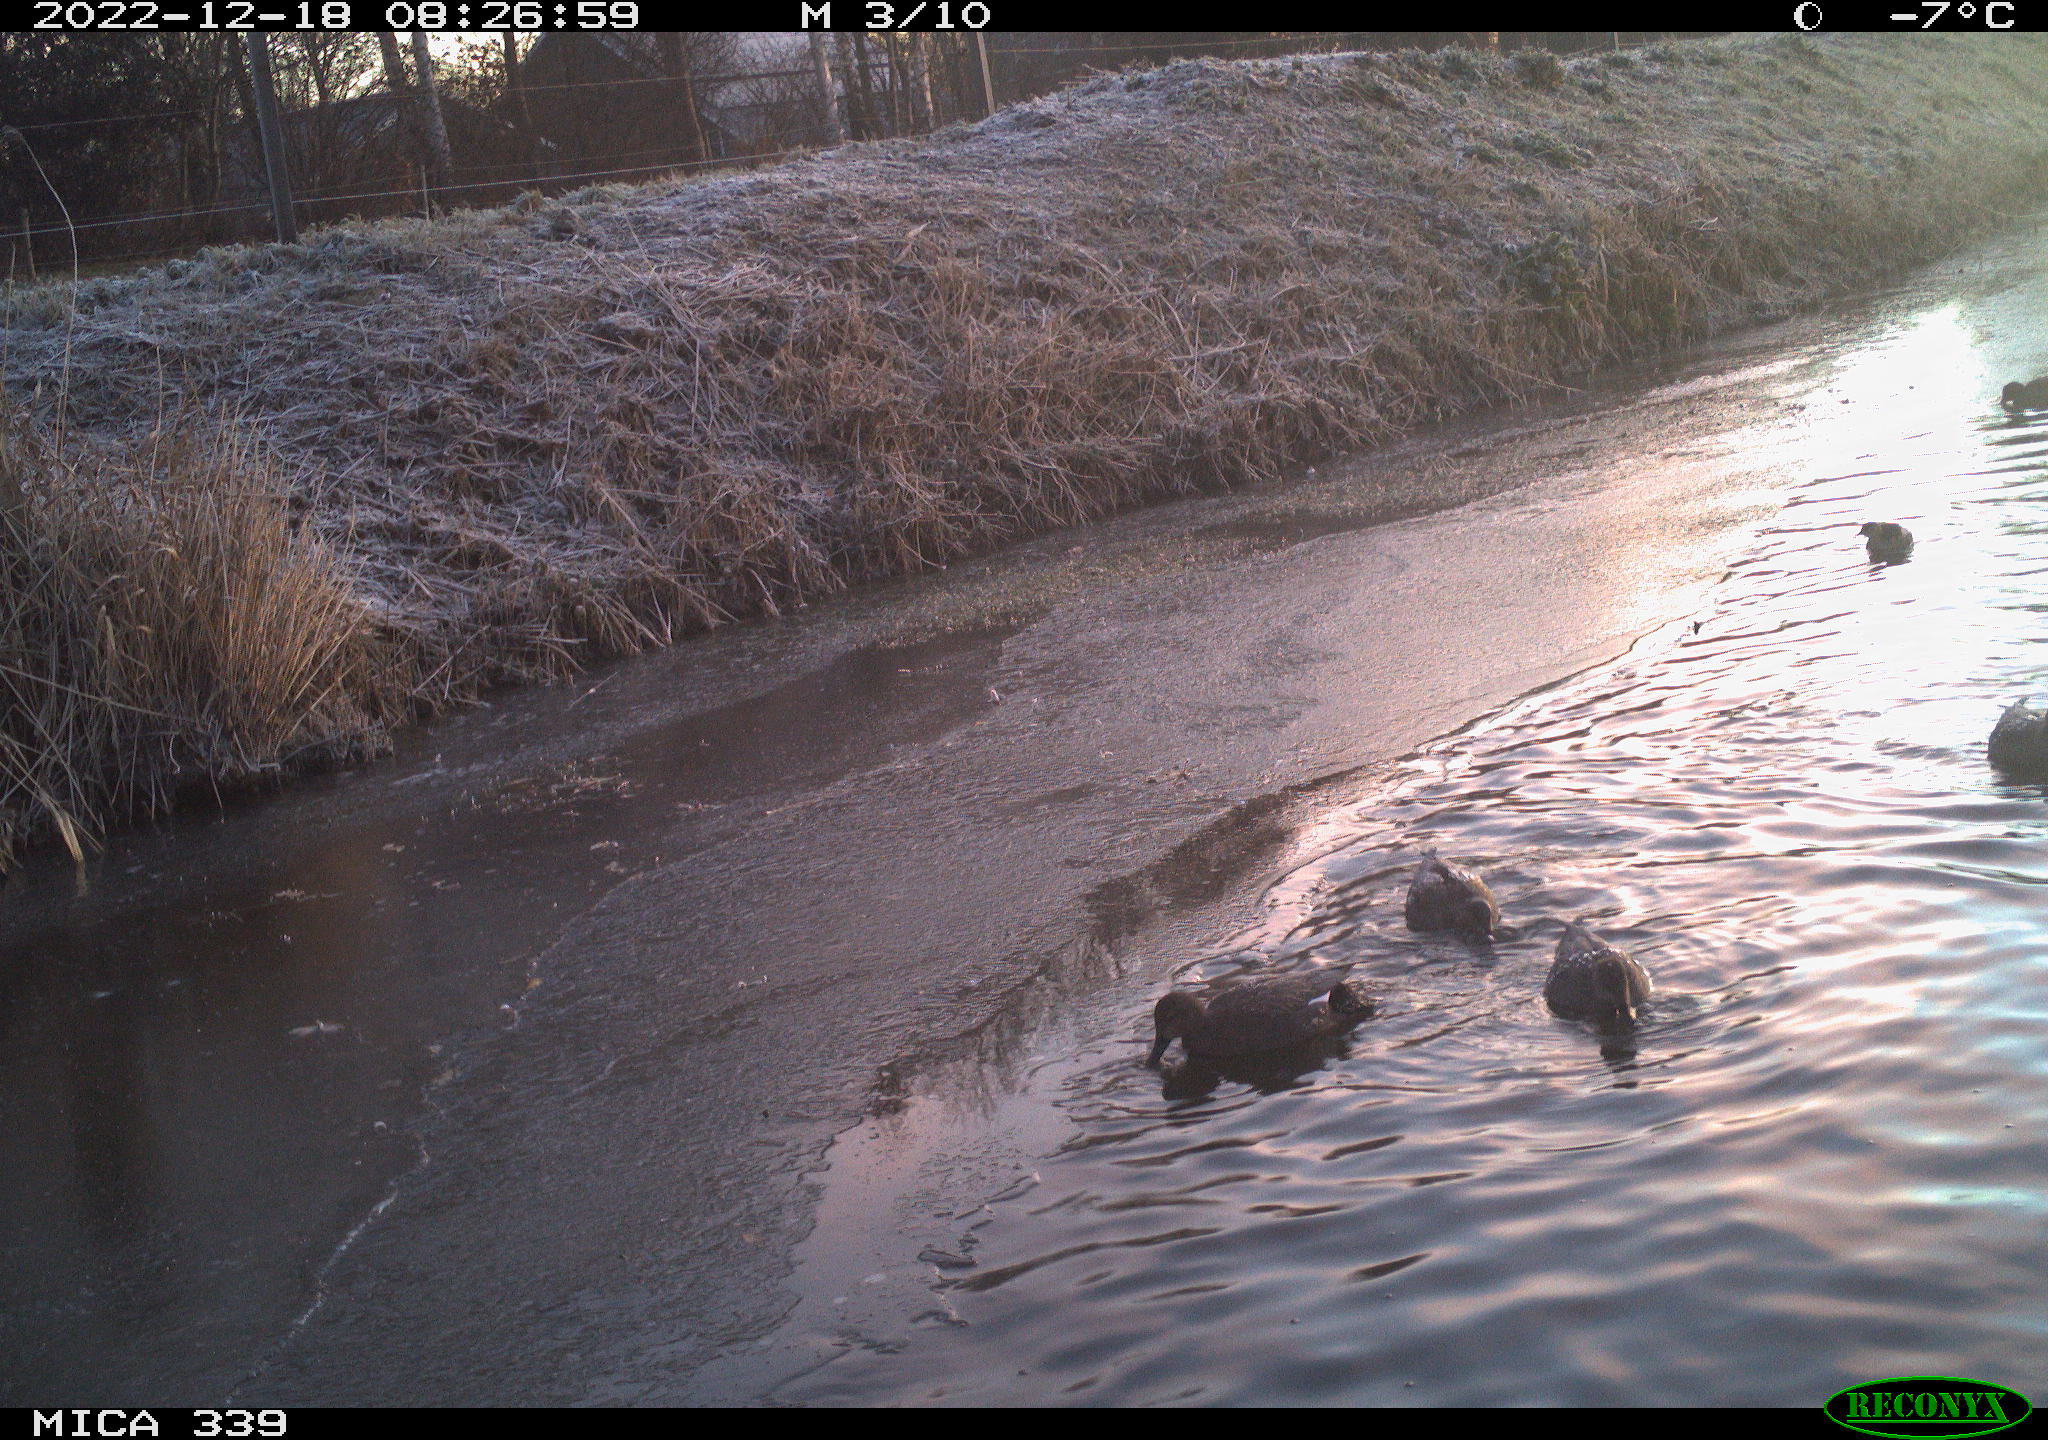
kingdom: Animalia
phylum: Chordata
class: Aves
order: Anseriformes
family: Anatidae
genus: Anas
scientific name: Anas
